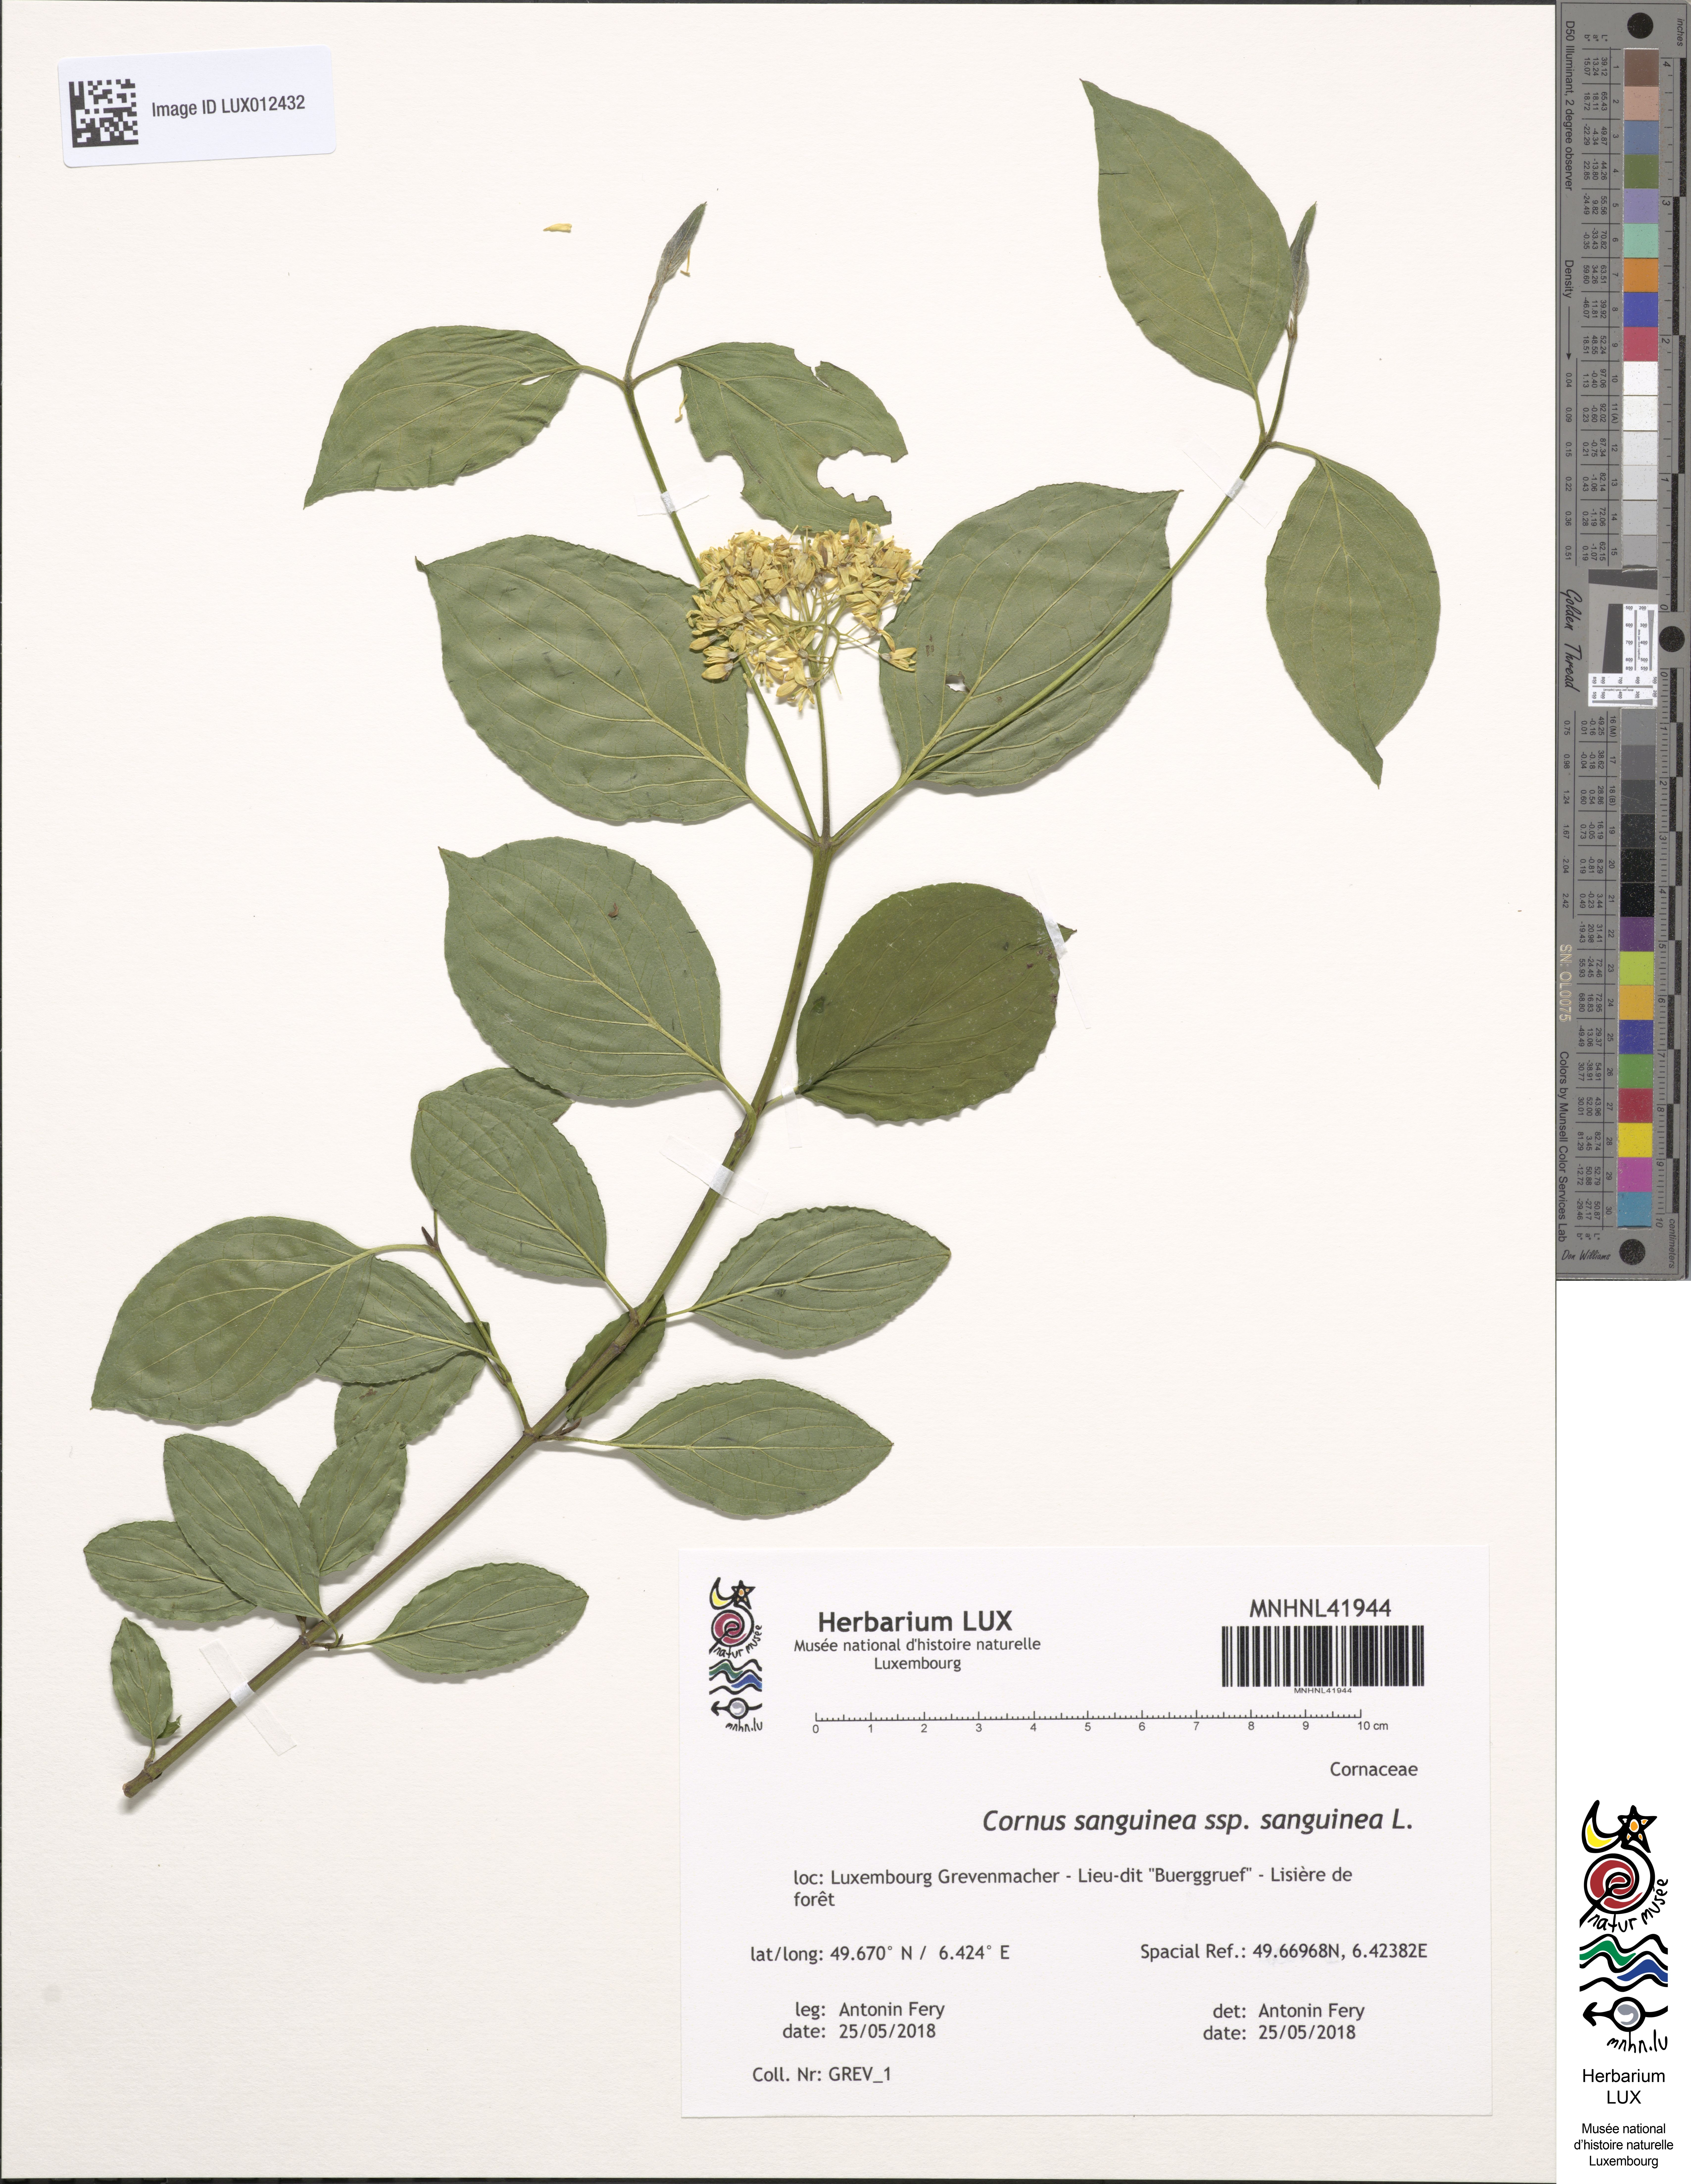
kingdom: Plantae
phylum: Tracheophyta
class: Magnoliopsida
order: Cornales
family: Cornaceae
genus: Cornus
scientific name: Cornus sanguinea
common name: Dogwood
